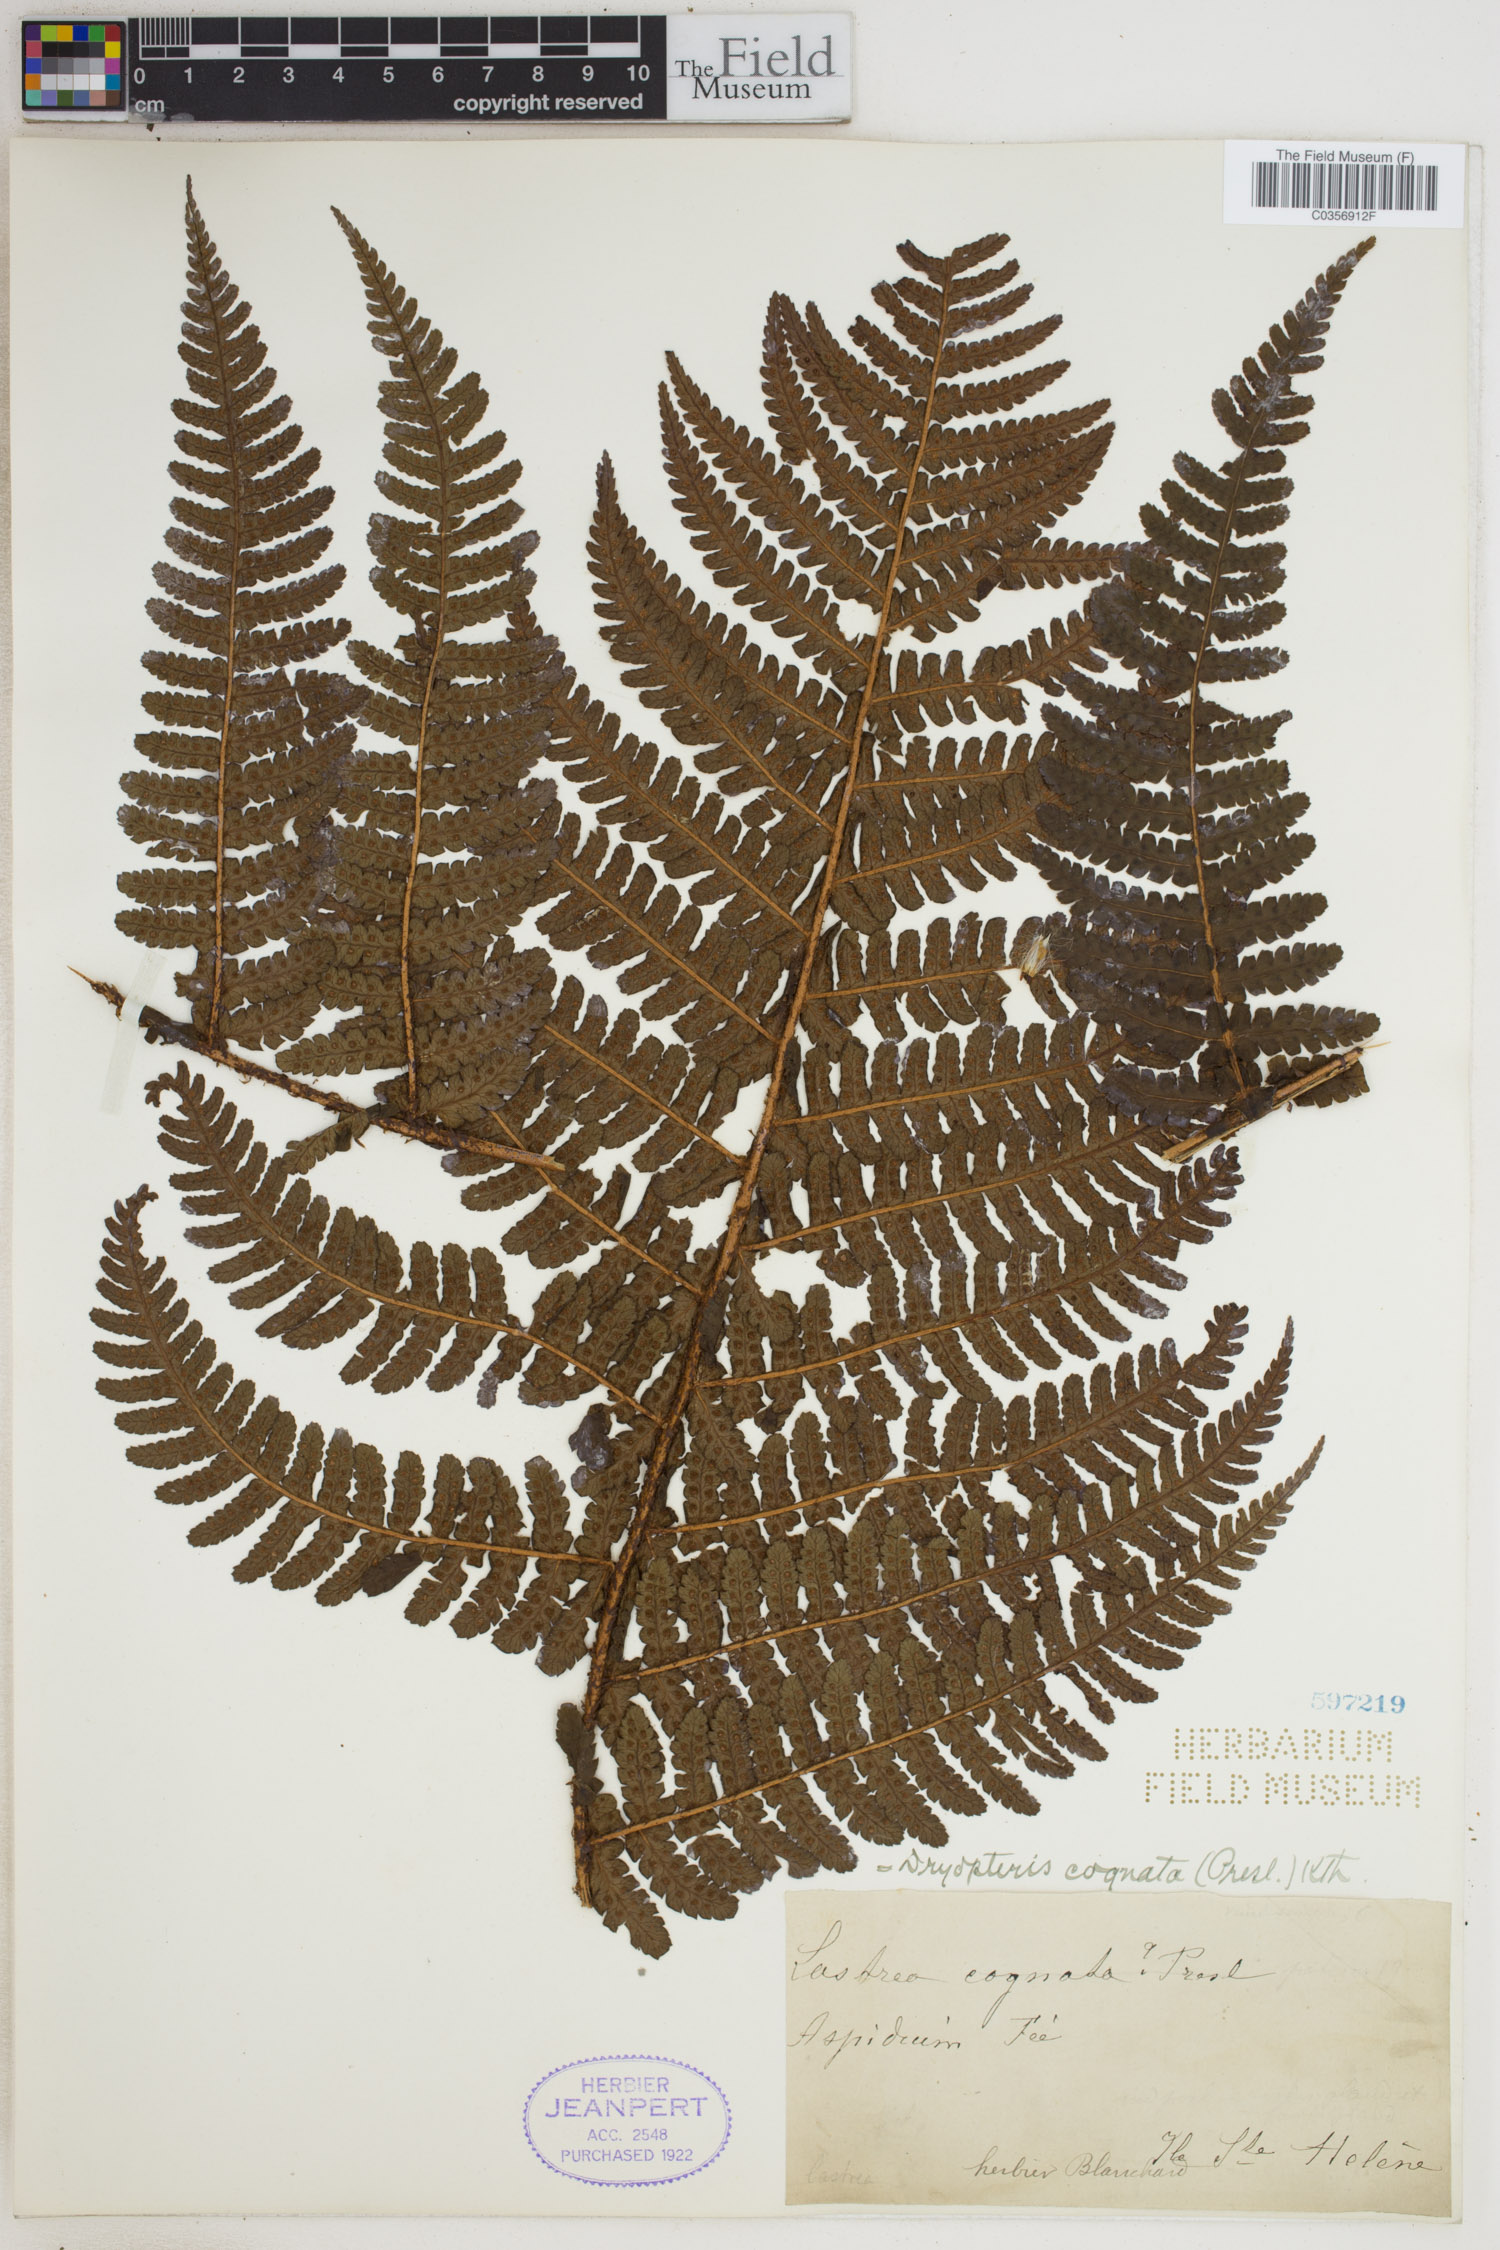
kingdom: Plantae
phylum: Tracheophyta
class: Polypodiopsida
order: Polypodiales
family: Dryopteridaceae
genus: Dryopteris
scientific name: Dryopteris cognata
